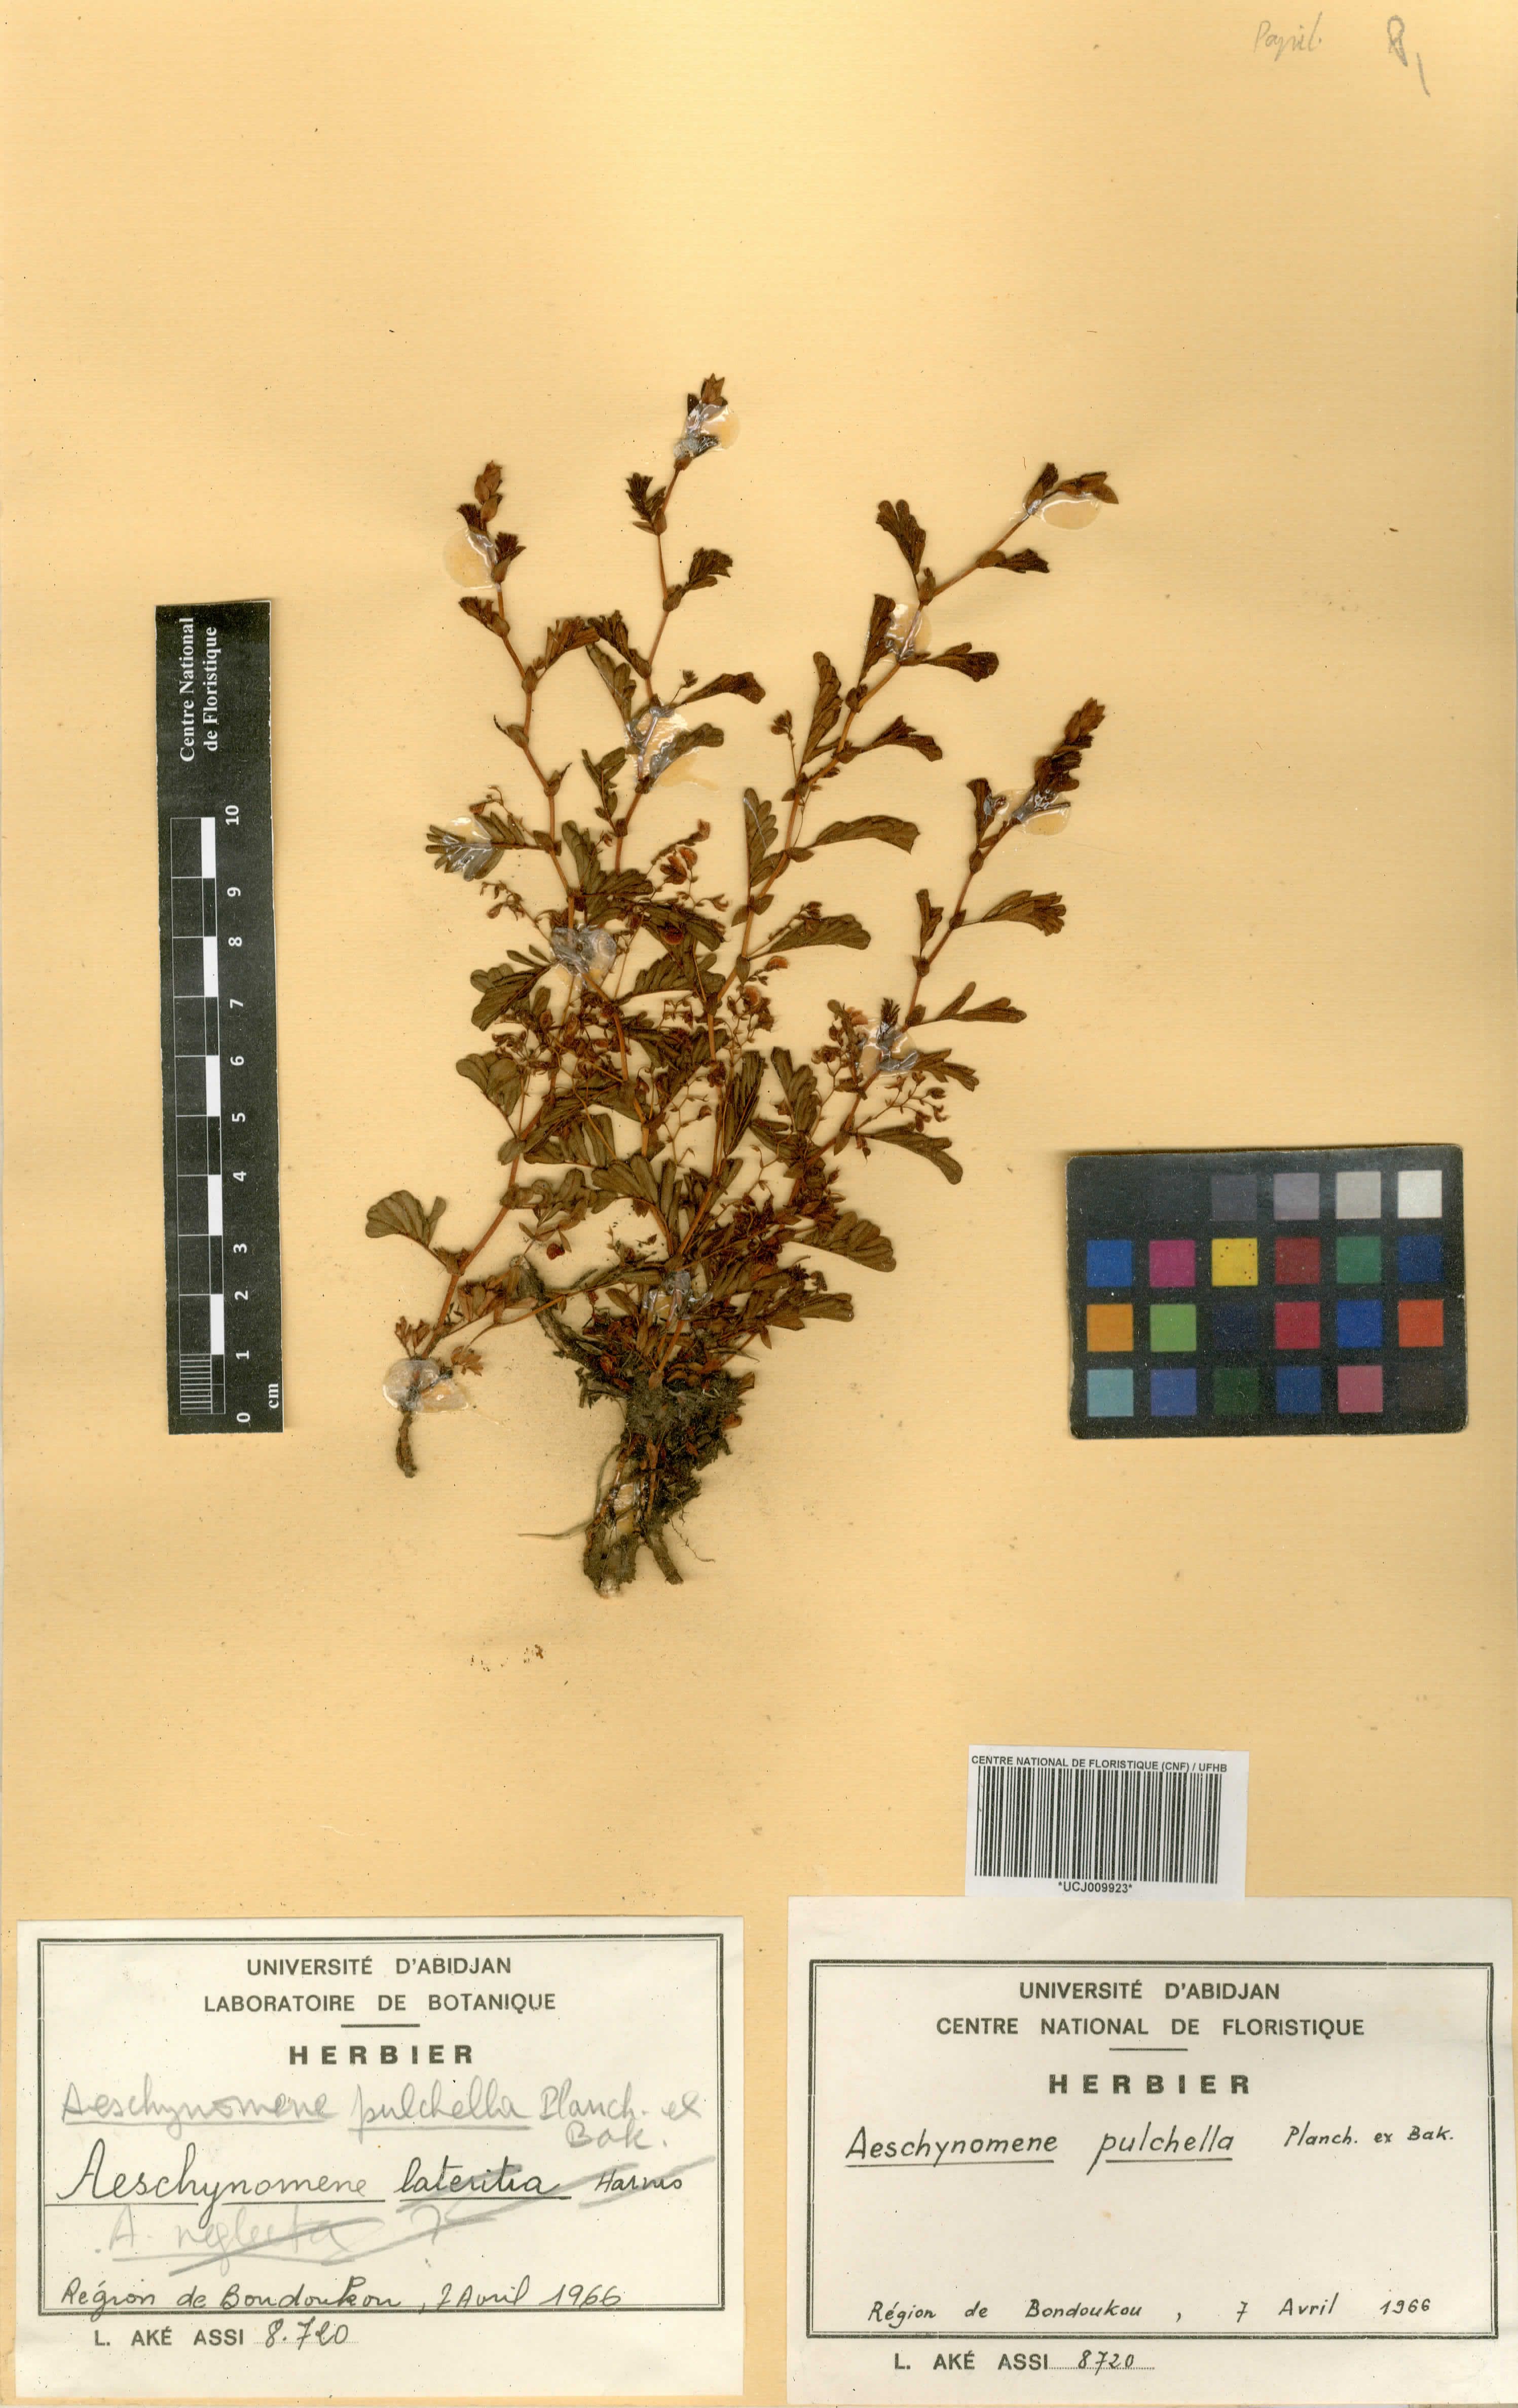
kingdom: Plantae
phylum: Tracheophyta
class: Magnoliopsida
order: Fabales
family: Fabaceae
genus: Aeschynomene
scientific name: Aeschynomene pulchella
